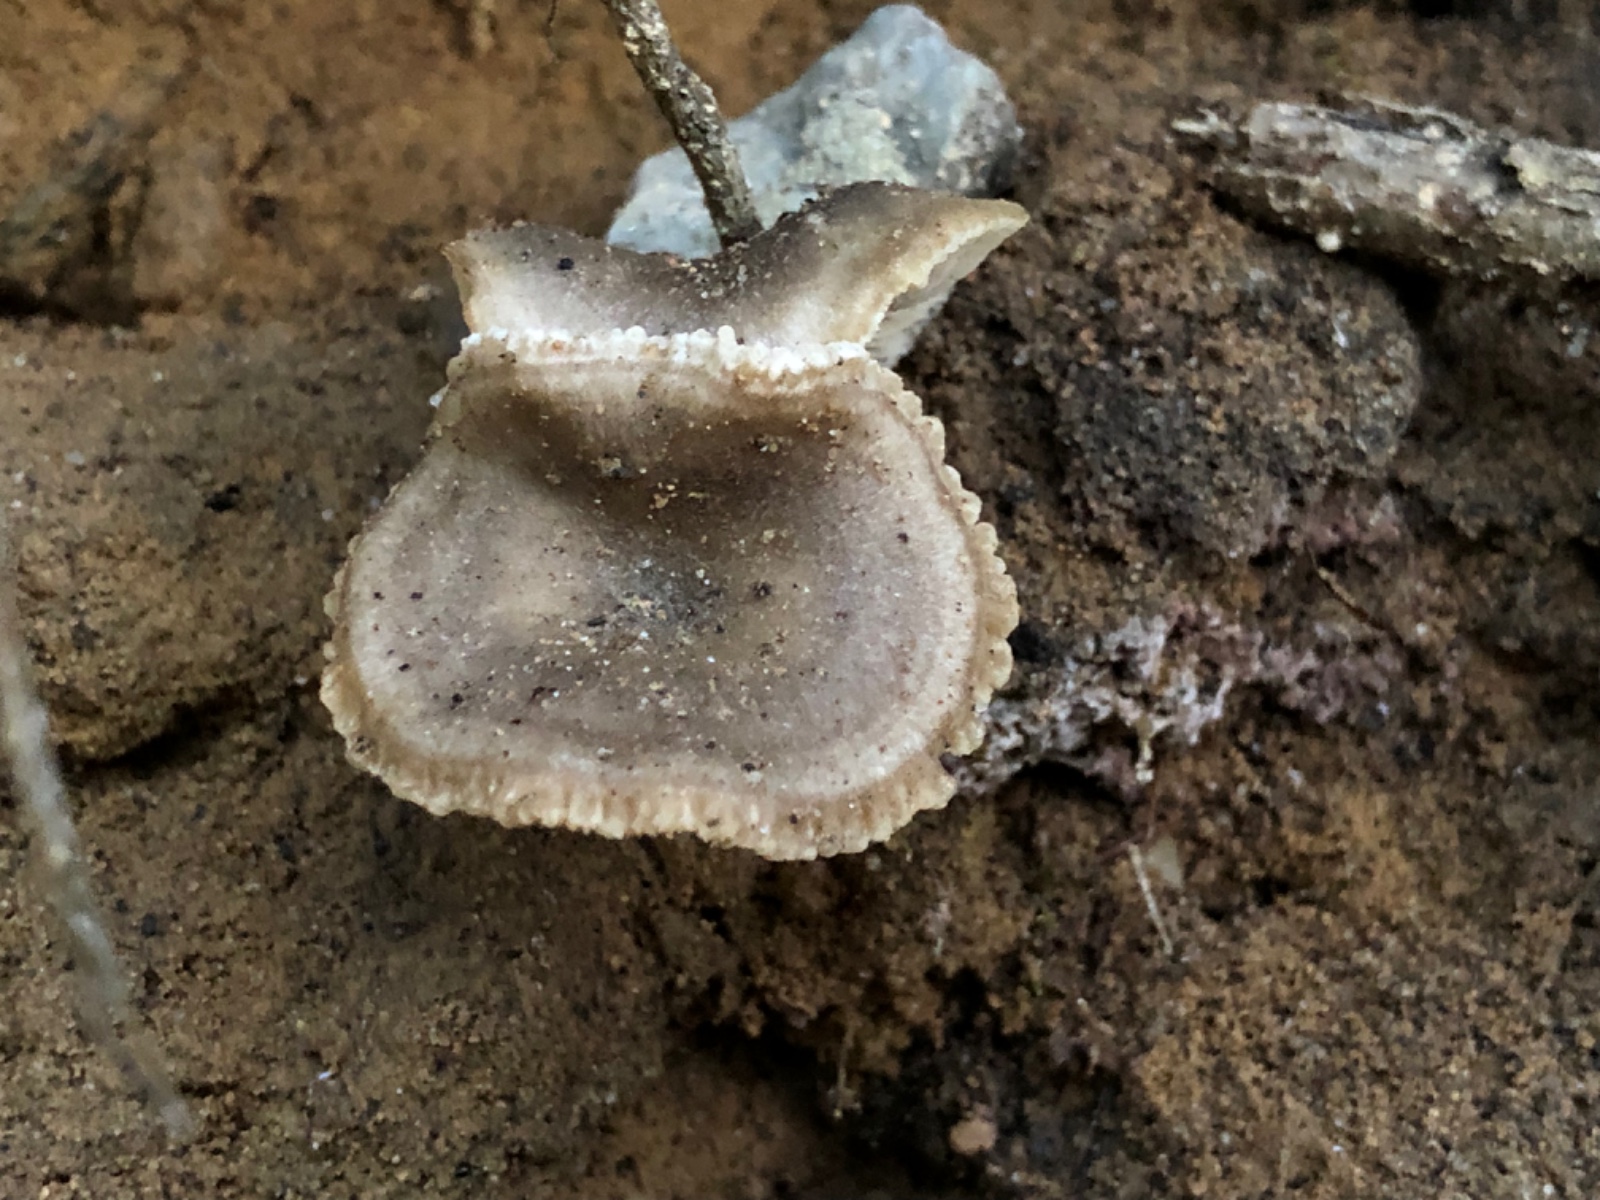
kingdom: Fungi
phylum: Basidiomycota
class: Agaricomycetes
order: Agaricales
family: Pseudoclitocybaceae
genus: Musumecia
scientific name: Musumecia vermicularis
